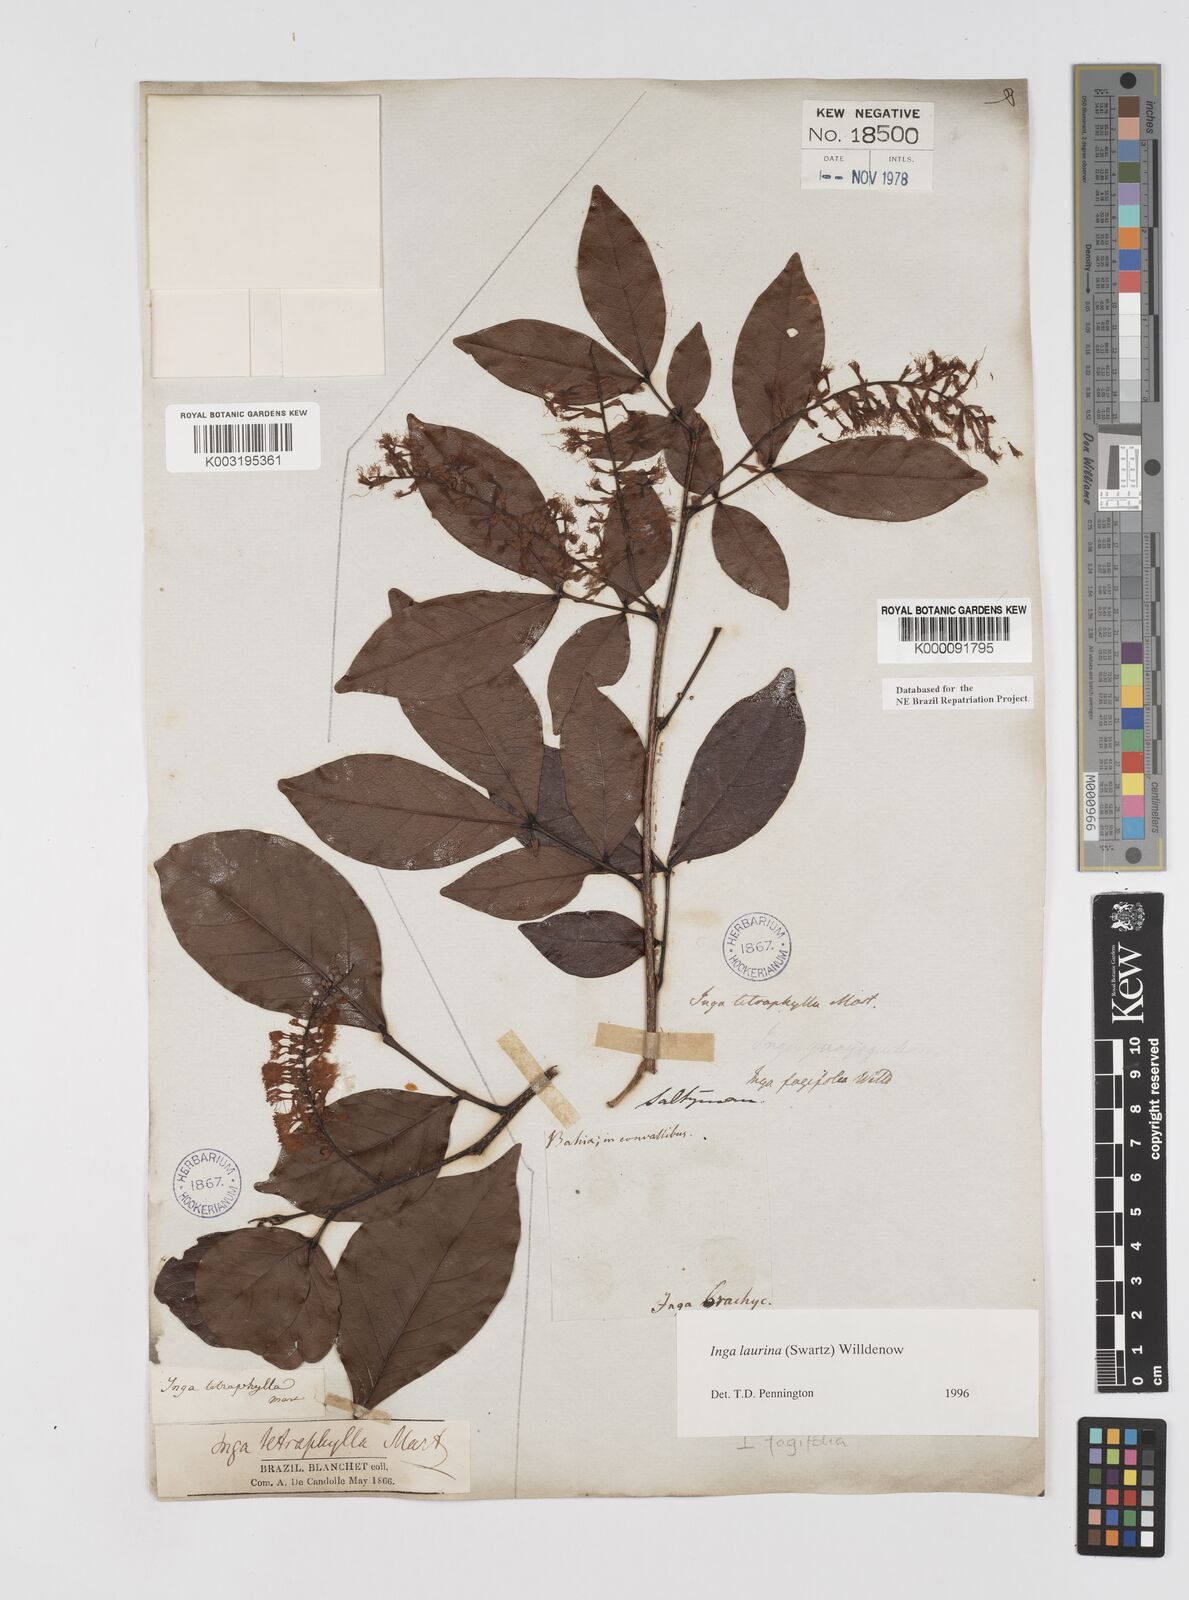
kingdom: Plantae
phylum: Tracheophyta
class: Magnoliopsida
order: Fabales
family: Fabaceae
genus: Inga
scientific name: Inga laurina
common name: Red wood
